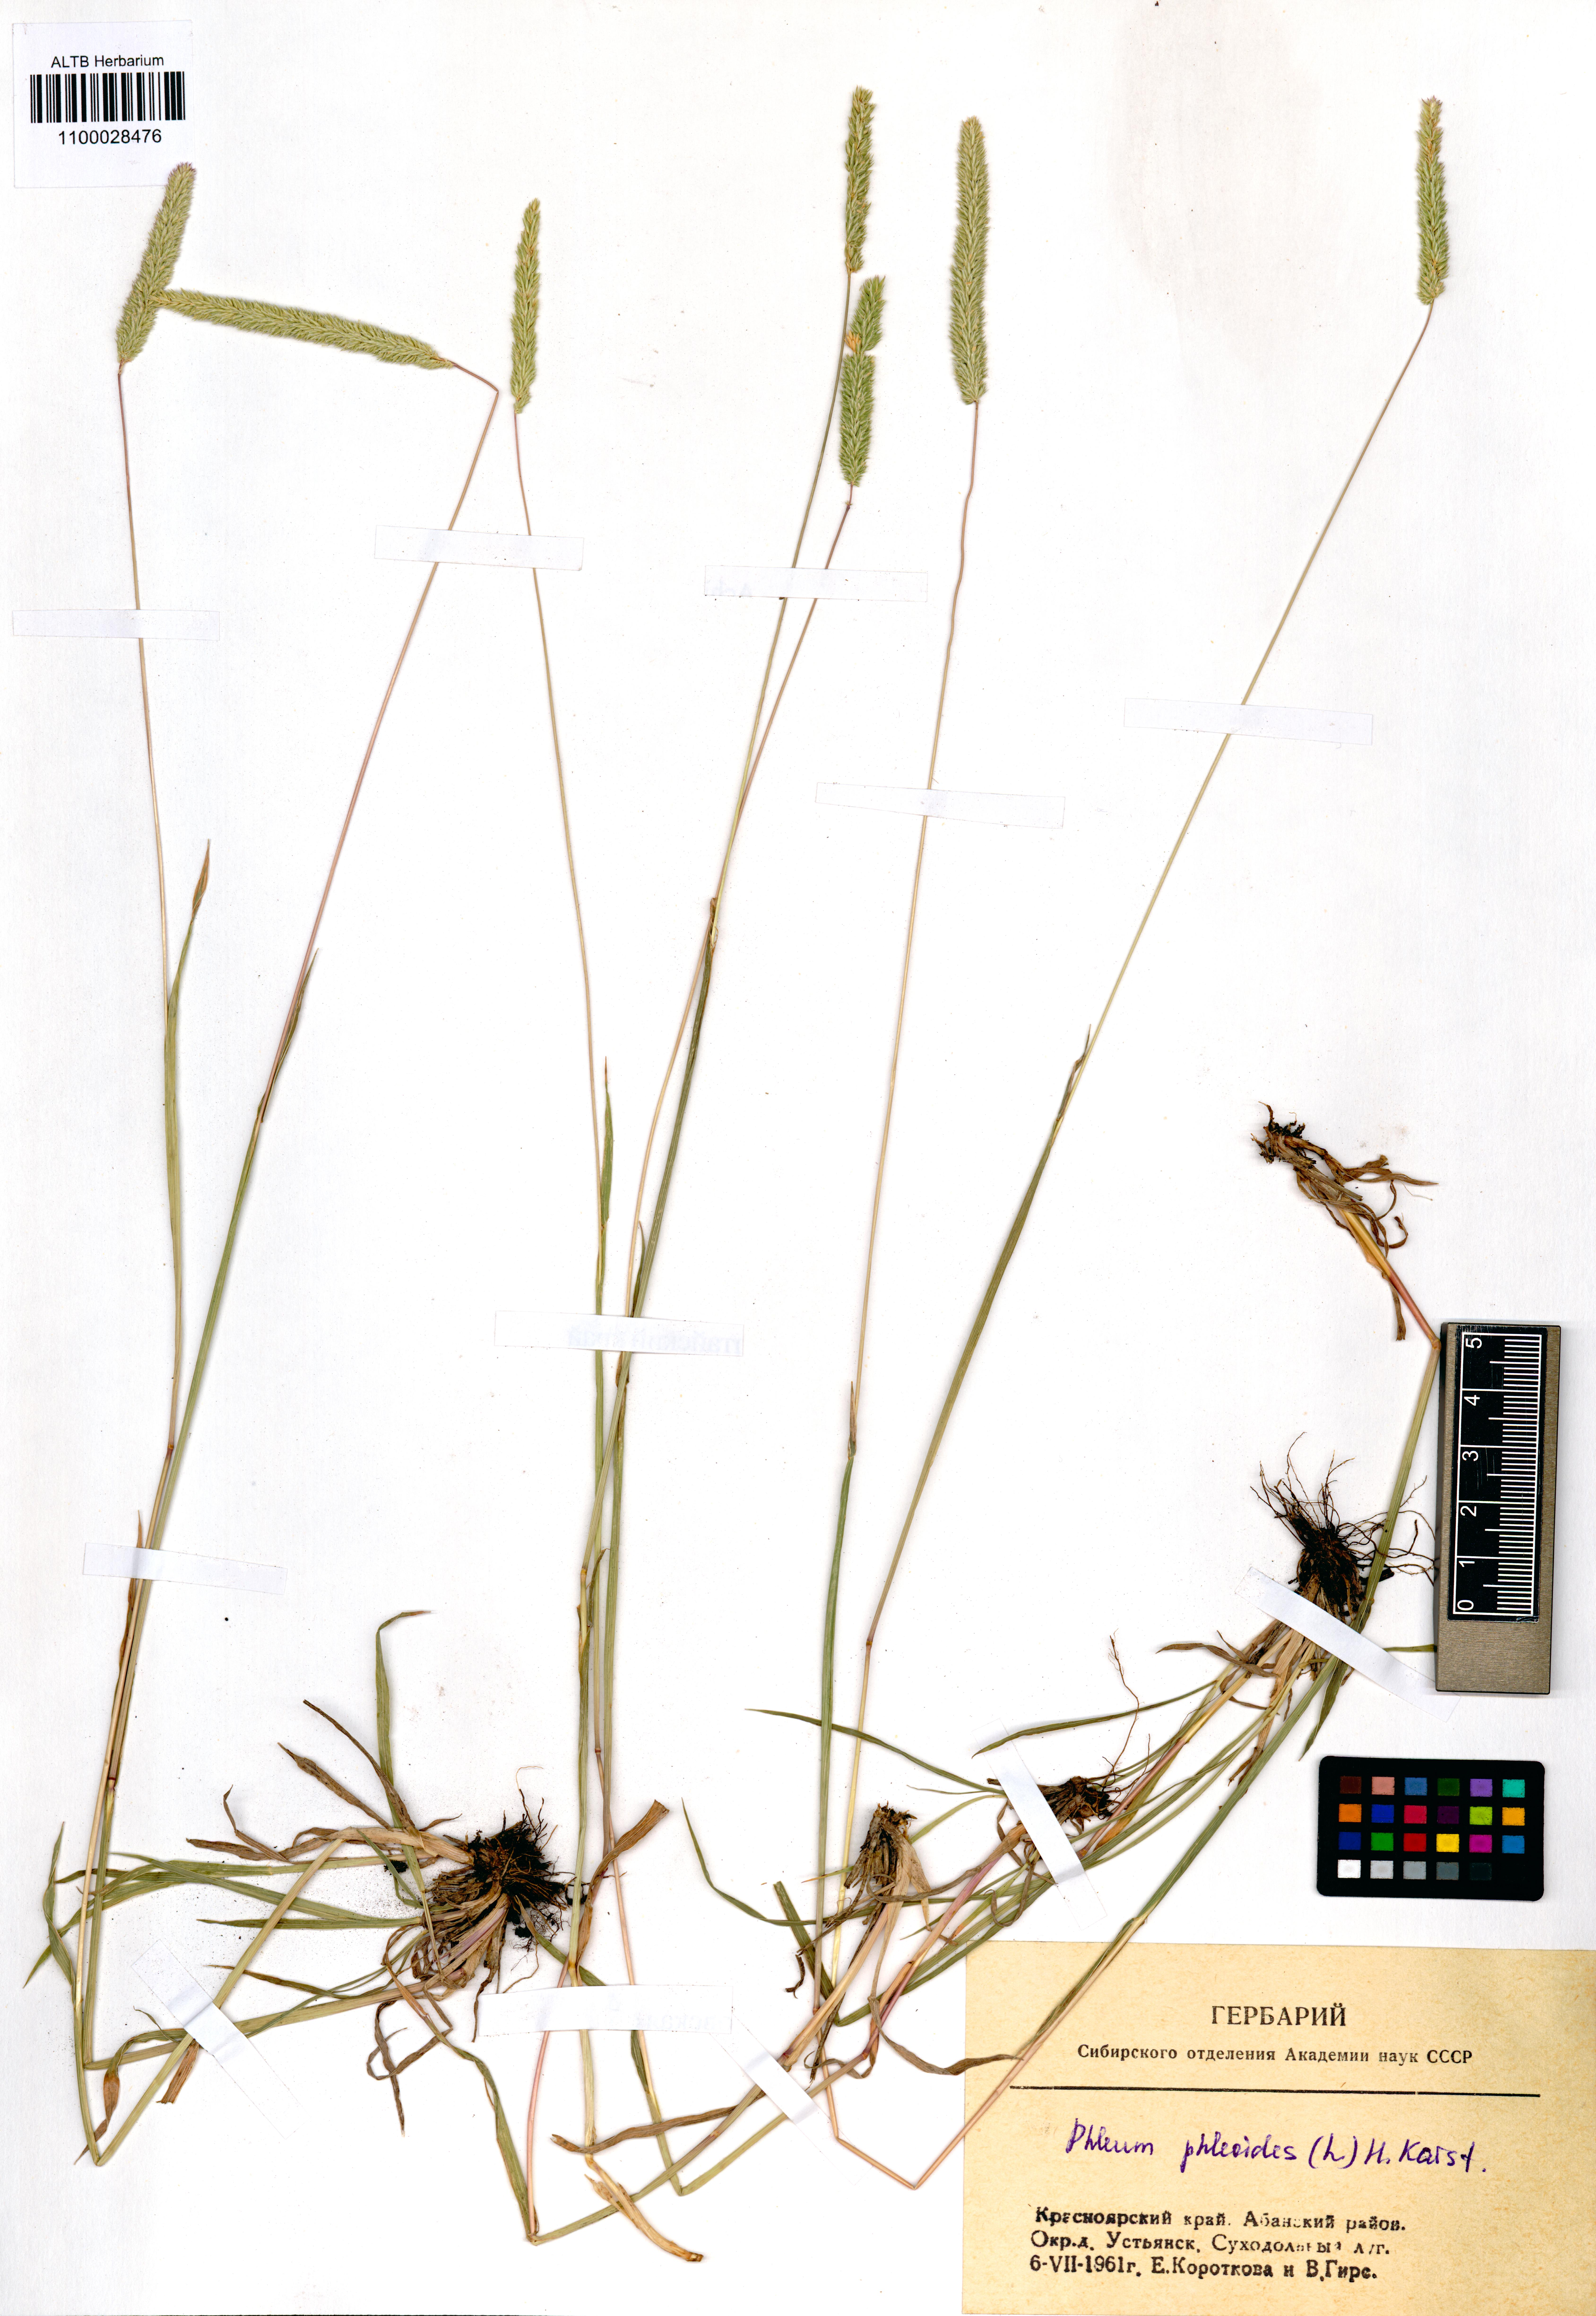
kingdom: Plantae
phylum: Tracheophyta
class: Liliopsida
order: Poales
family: Poaceae
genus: Phleum
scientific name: Phleum phleoides
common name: Purple-stem cat's-tail
